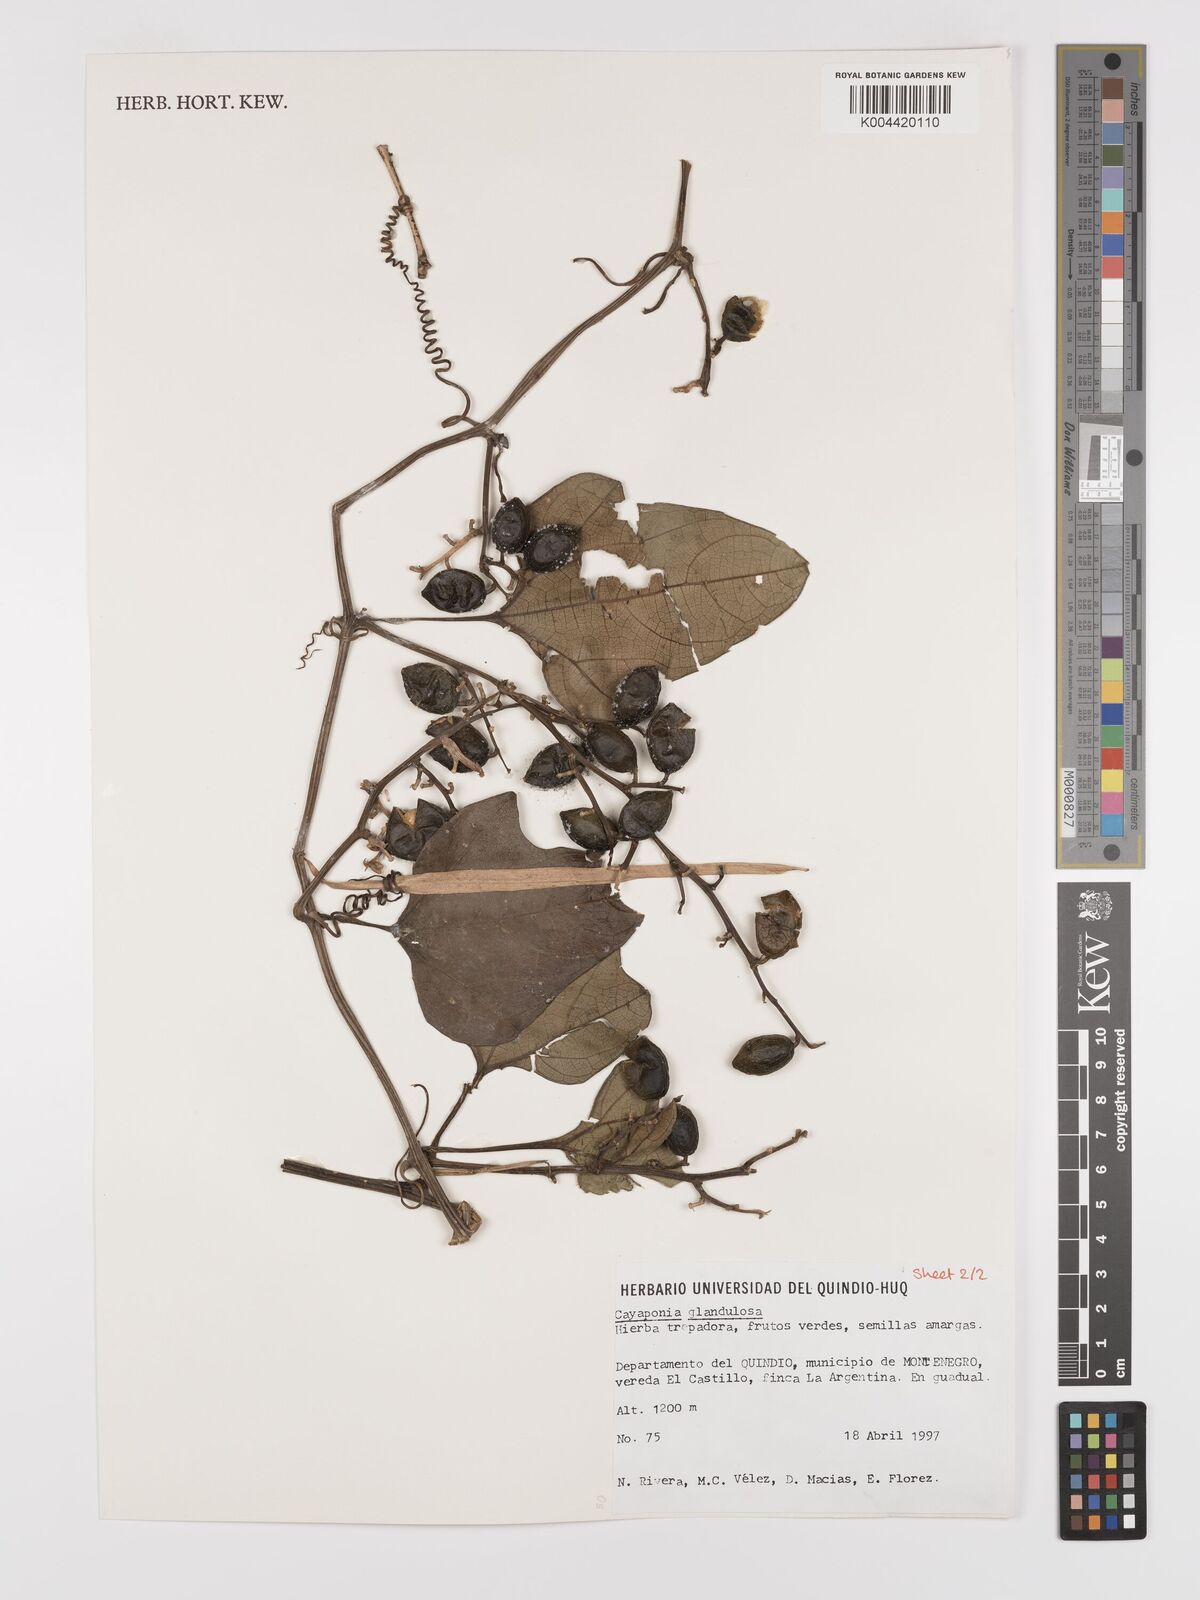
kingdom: Plantae
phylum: Tracheophyta
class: Magnoliopsida
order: Cucurbitales
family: Cucurbitaceae
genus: Cayaponia
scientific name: Cayaponia glandulosa
